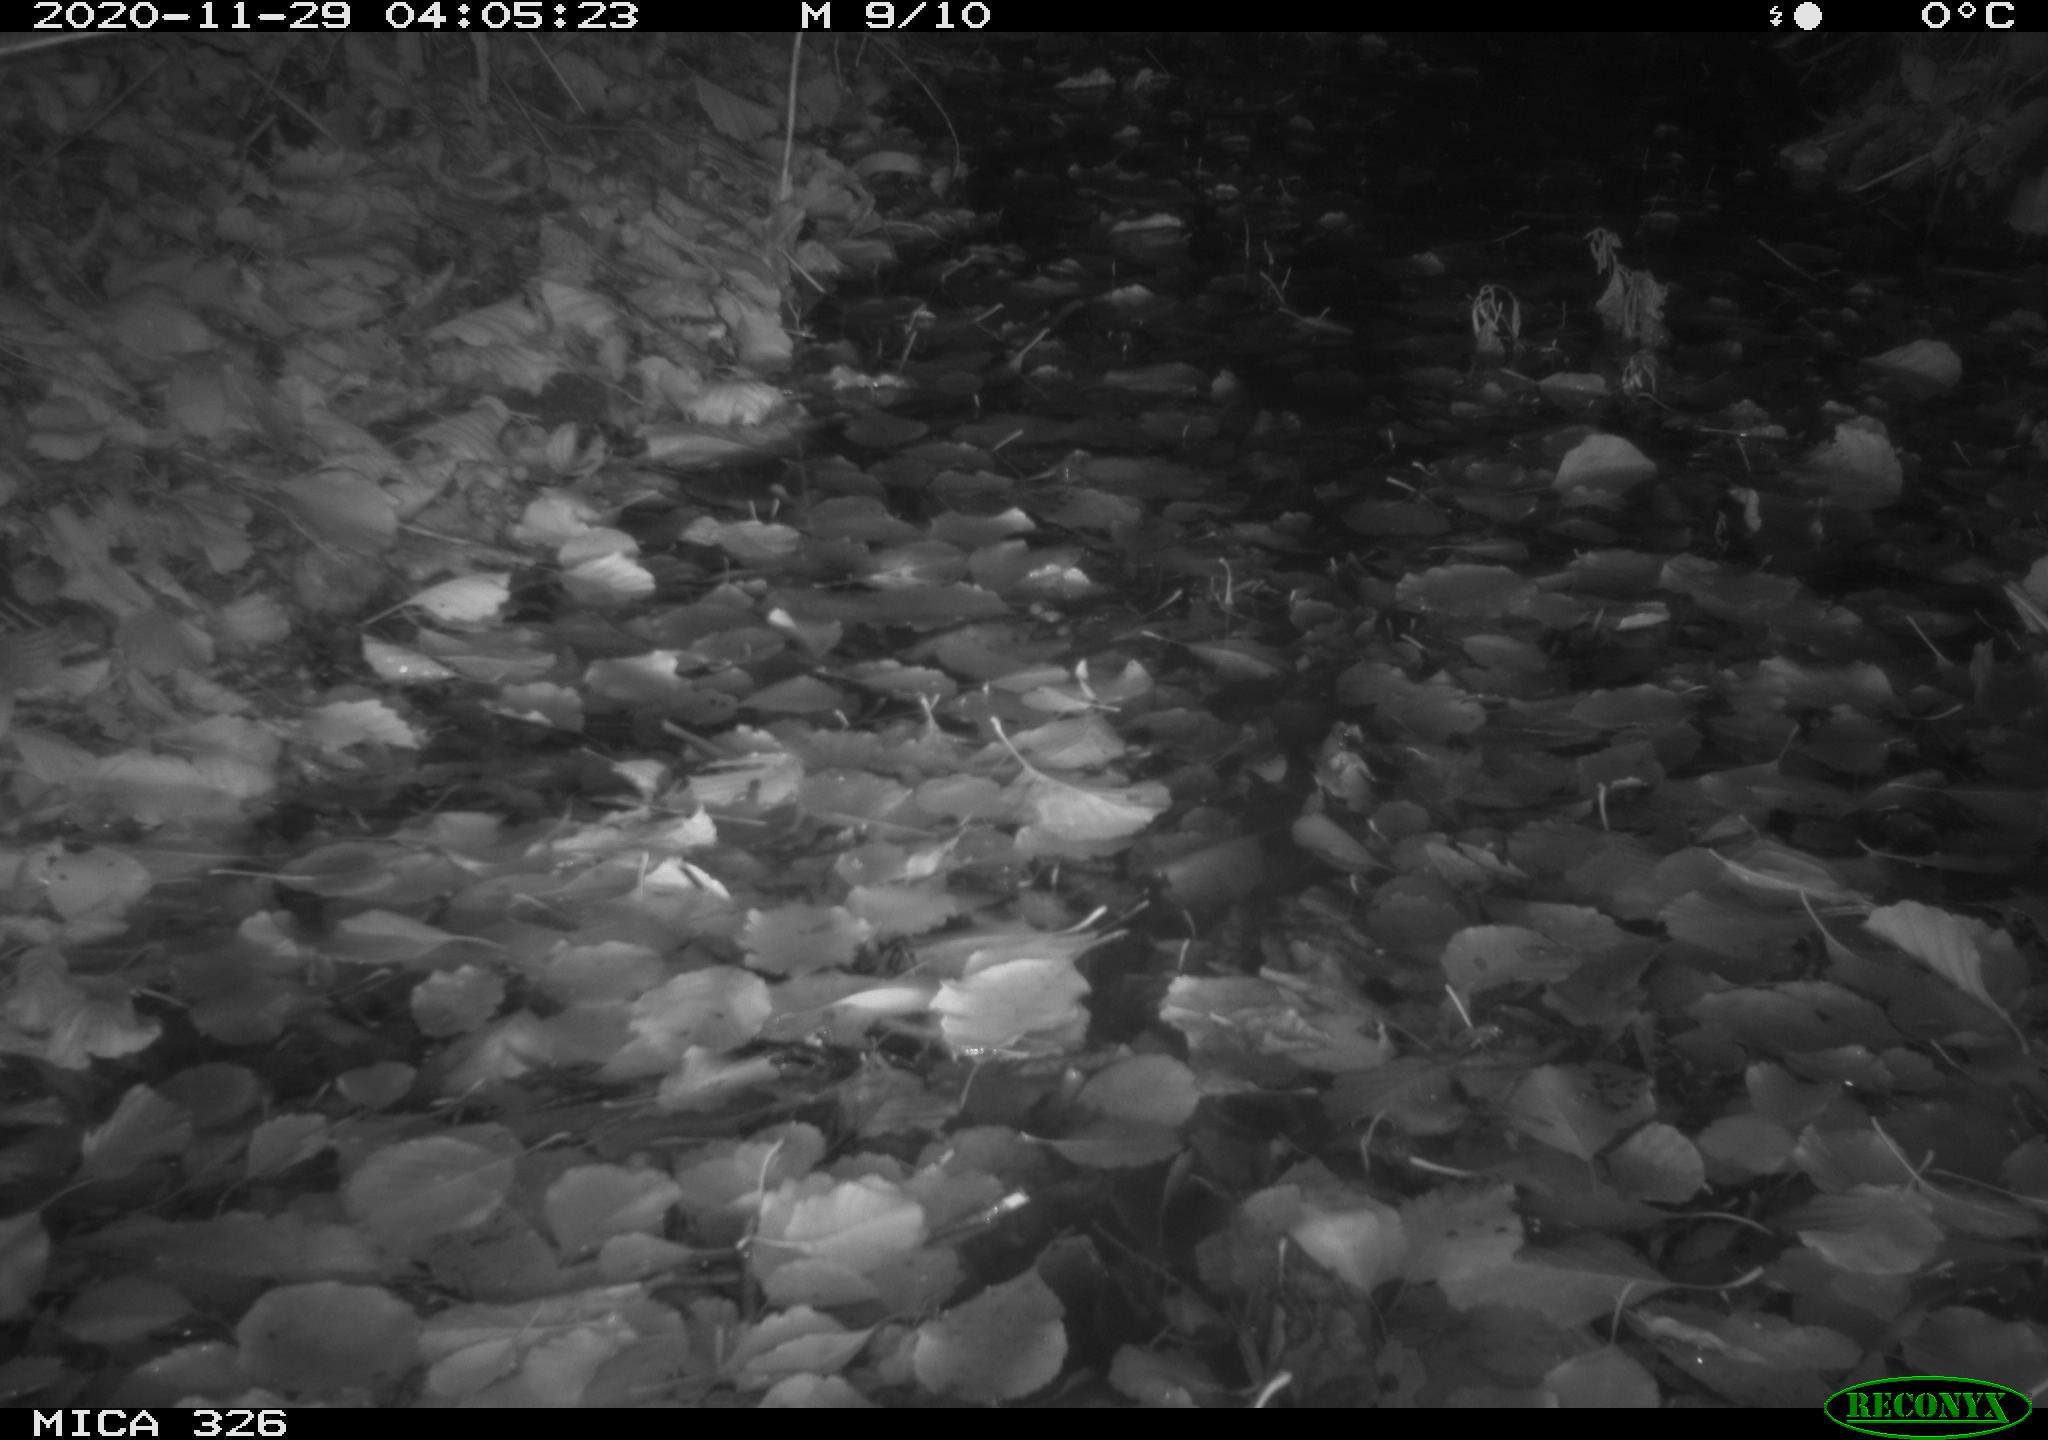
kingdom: Animalia
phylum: Chordata
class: Mammalia
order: Carnivora
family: Mustelidae
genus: Lutra
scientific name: Lutra lutra
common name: European otter
